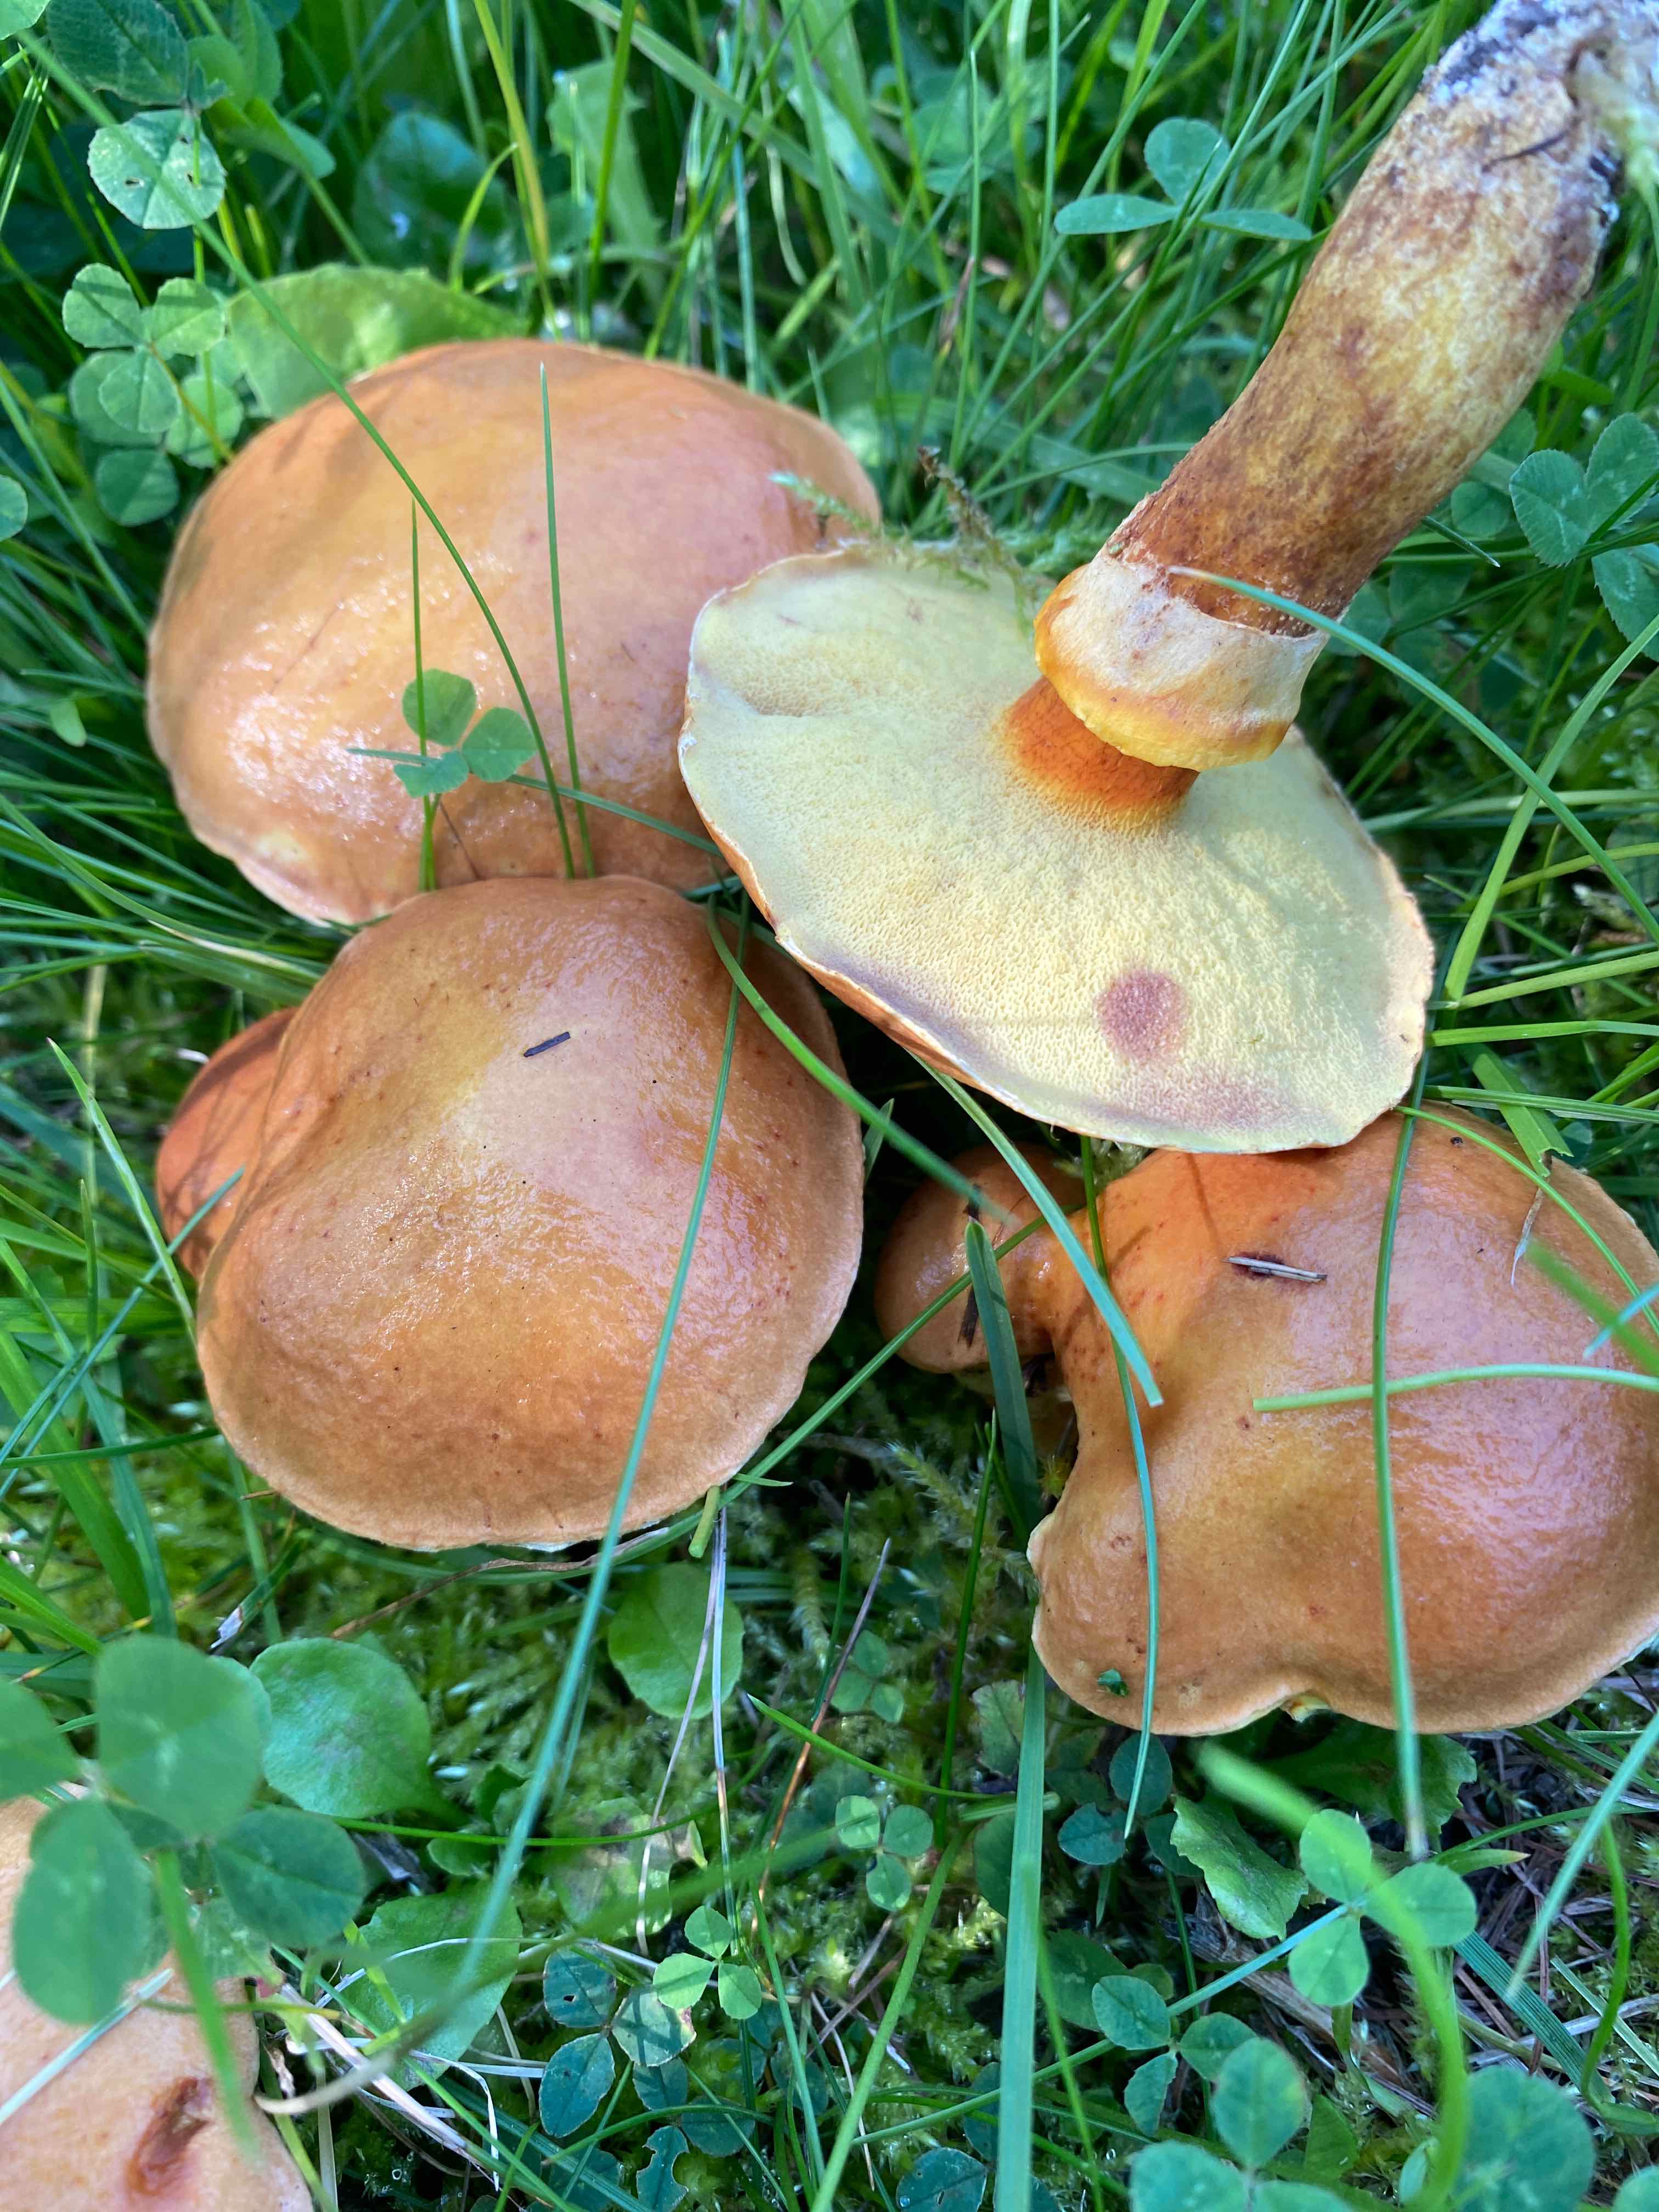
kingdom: Fungi
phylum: Basidiomycota
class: Agaricomycetes
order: Boletales
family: Suillaceae
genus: Suillus
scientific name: Suillus grevillei
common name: lærke-slimrørhat
